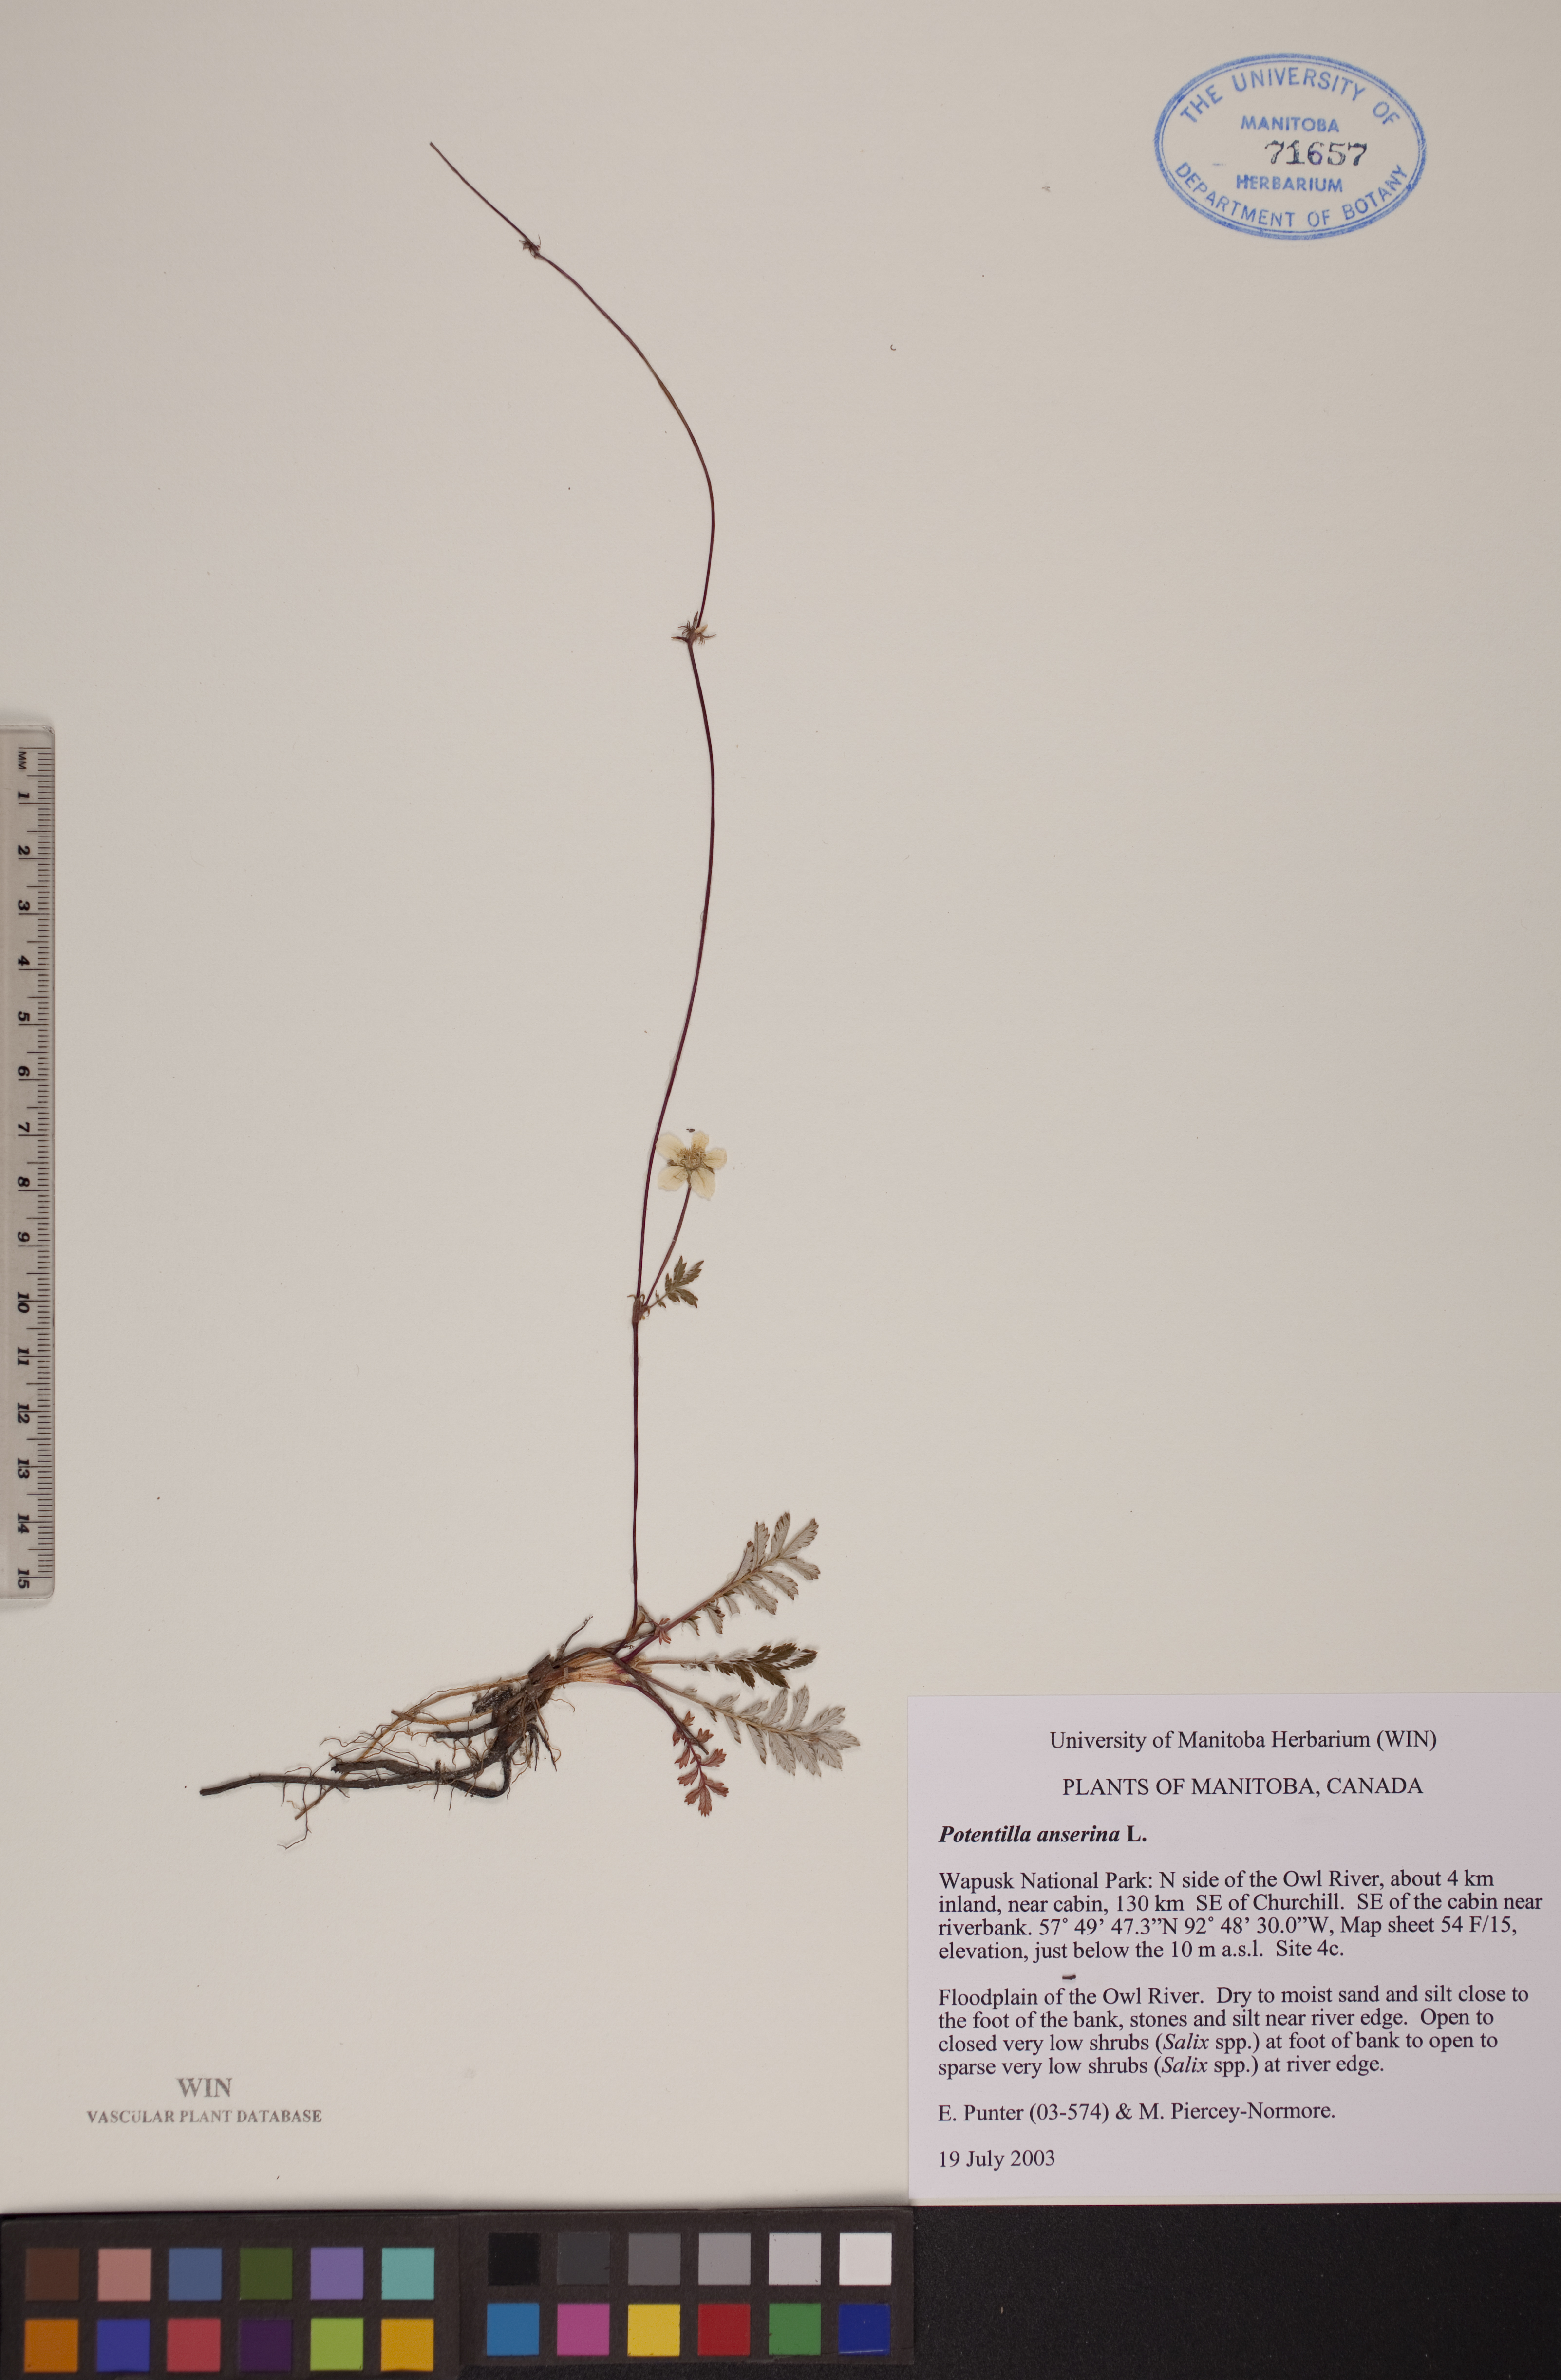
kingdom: Plantae
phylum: Tracheophyta
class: Magnoliopsida
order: Rosales
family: Rosaceae
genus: Argentina
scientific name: Argentina anserina
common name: Common silverweed
